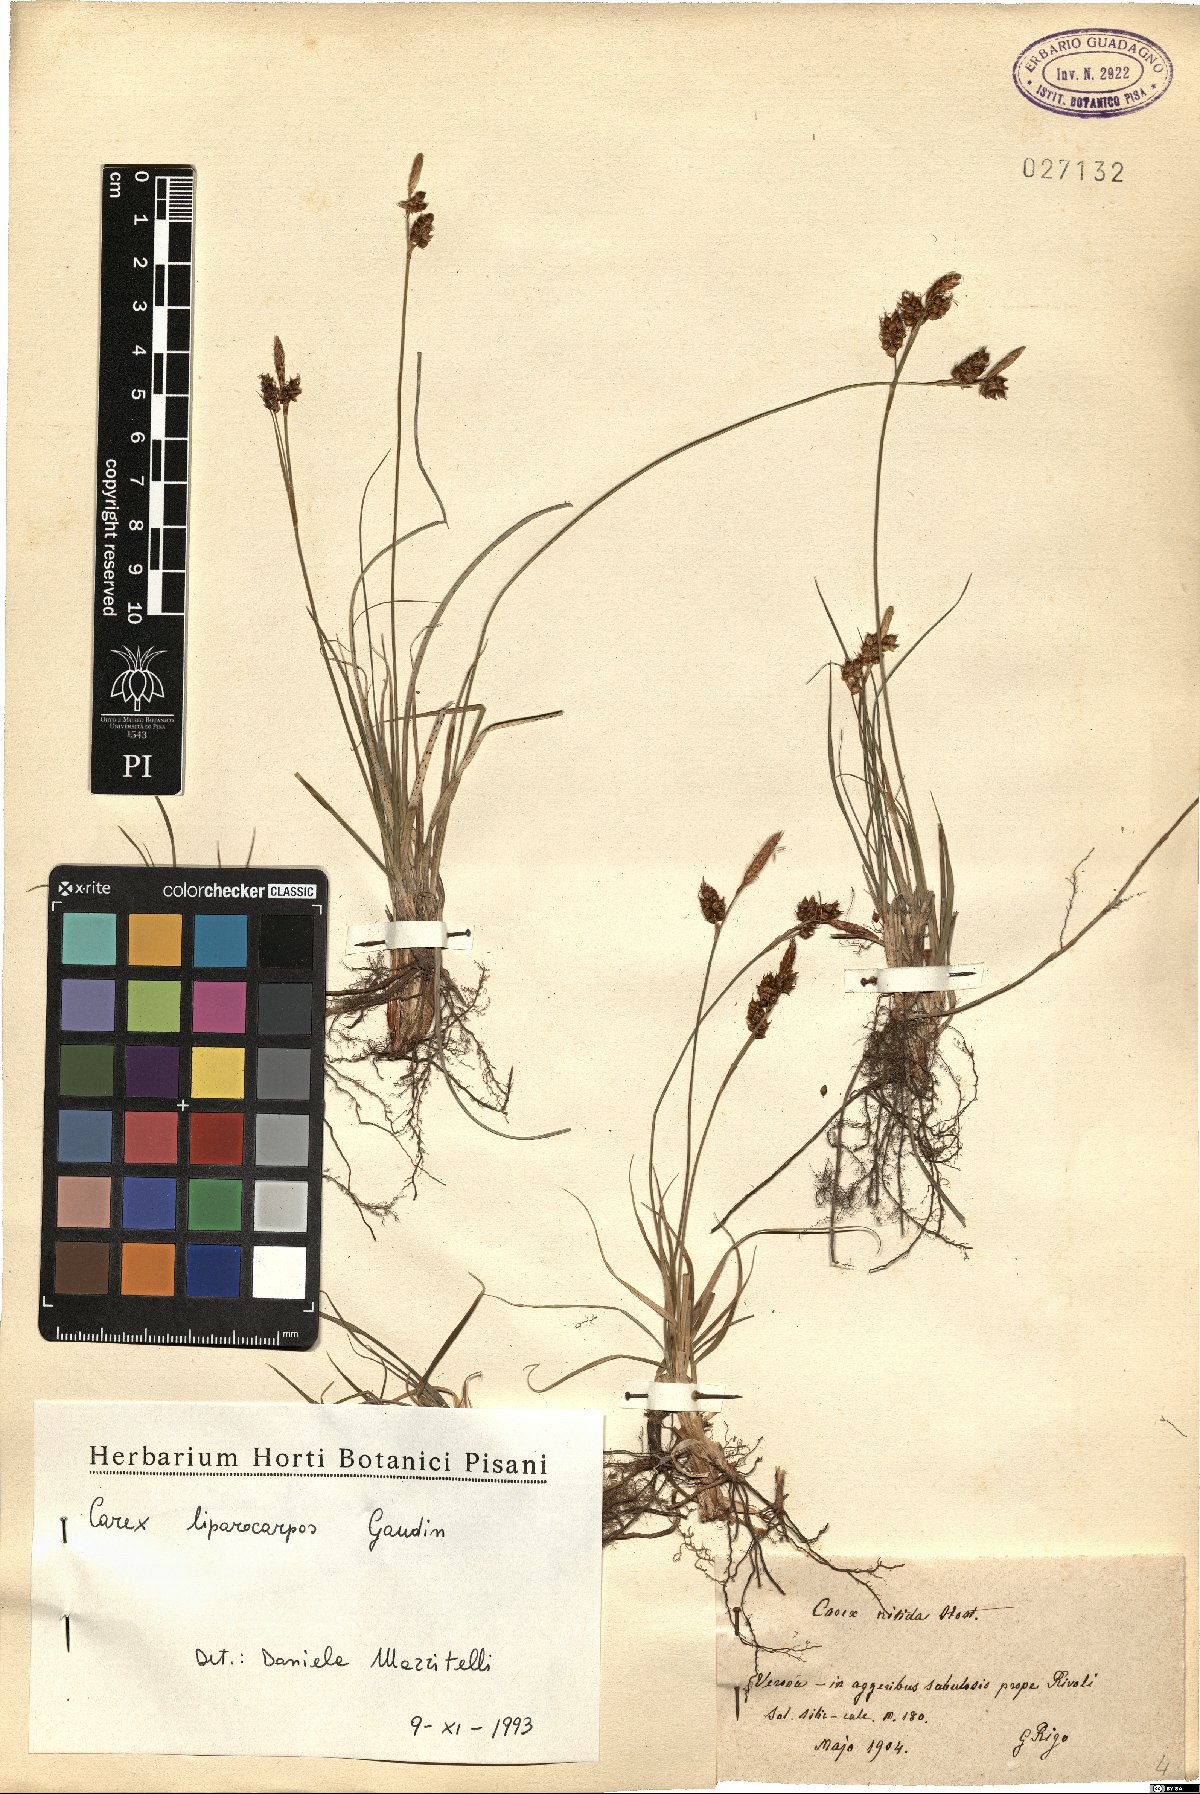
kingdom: Plantae
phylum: Tracheophyta
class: Liliopsida
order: Poales
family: Cyperaceae
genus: Carex
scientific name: Carex liparocarpos
